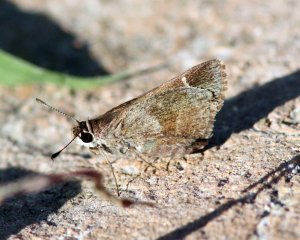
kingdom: Animalia
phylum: Arthropoda
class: Insecta
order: Lepidoptera
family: Hesperiidae
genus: Lerodea
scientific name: Lerodea arabus
